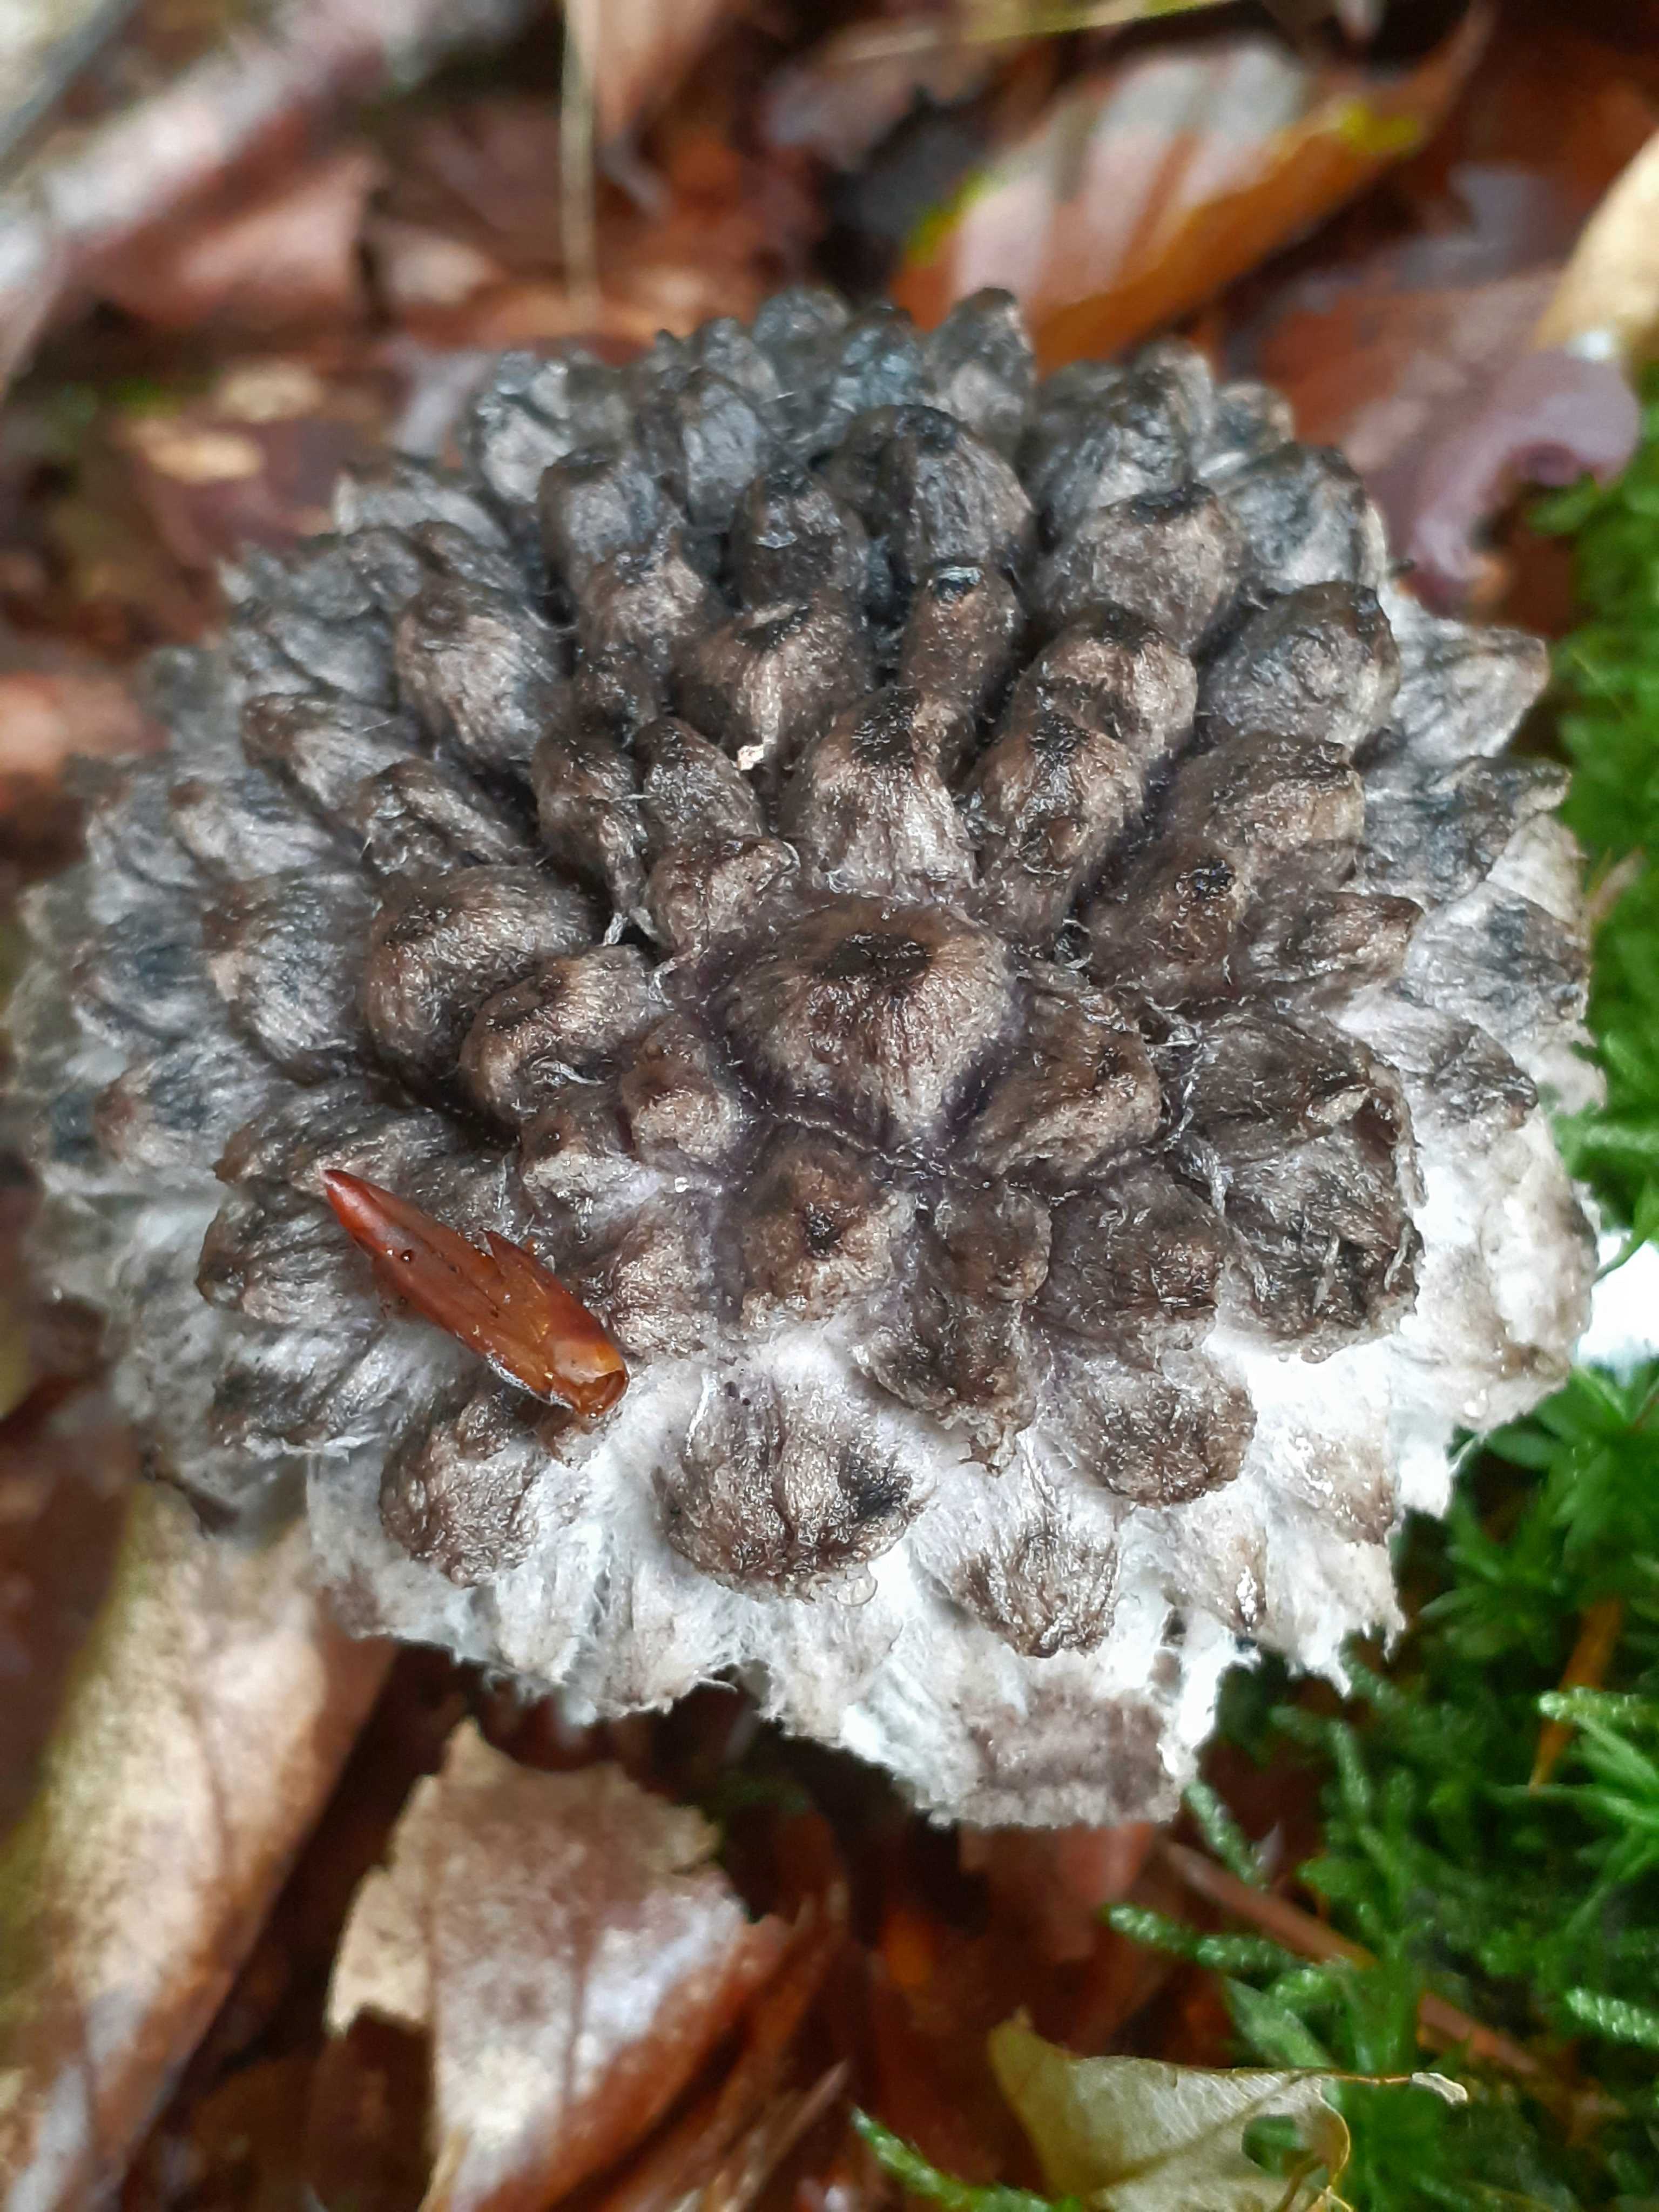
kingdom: Fungi
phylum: Basidiomycota
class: Agaricomycetes
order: Boletales
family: Boletaceae
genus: Strobilomyces
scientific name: Strobilomyces strobilaceus
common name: koglerørhat
